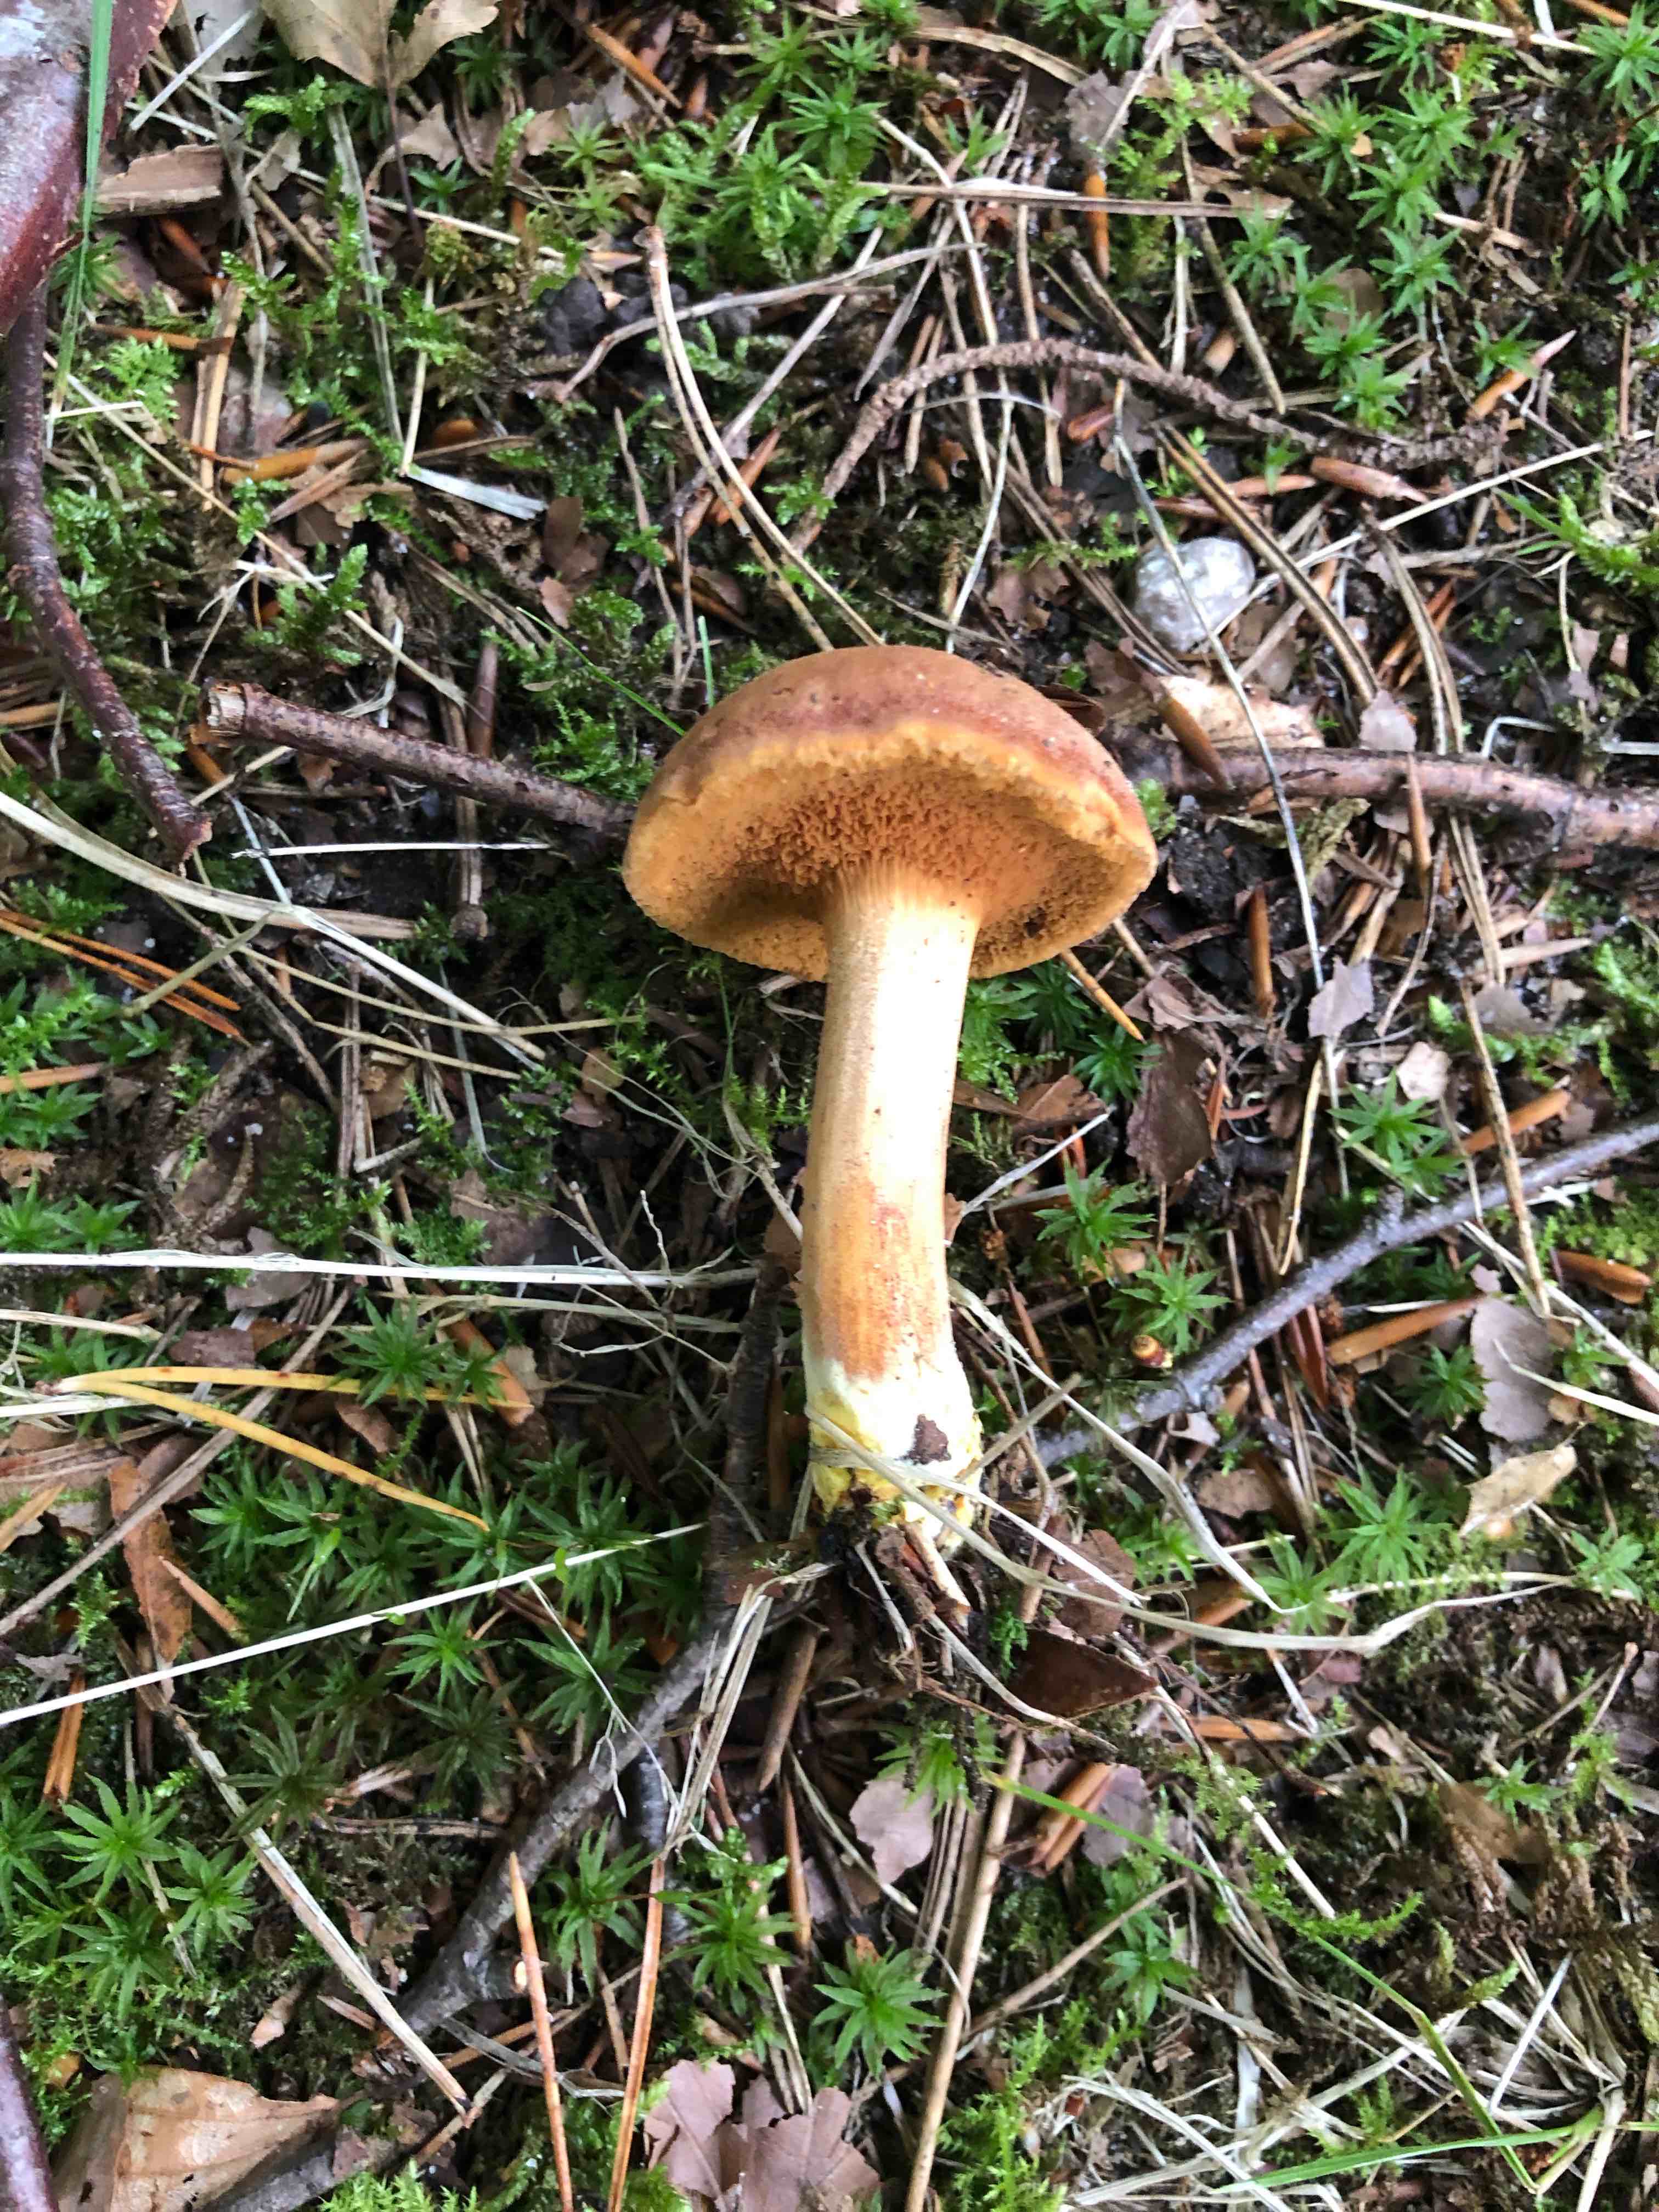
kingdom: Fungi
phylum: Basidiomycota
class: Agaricomycetes
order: Boletales
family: Boletaceae
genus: Chalciporus
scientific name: Chalciporus piperatus
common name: peberrørhat
